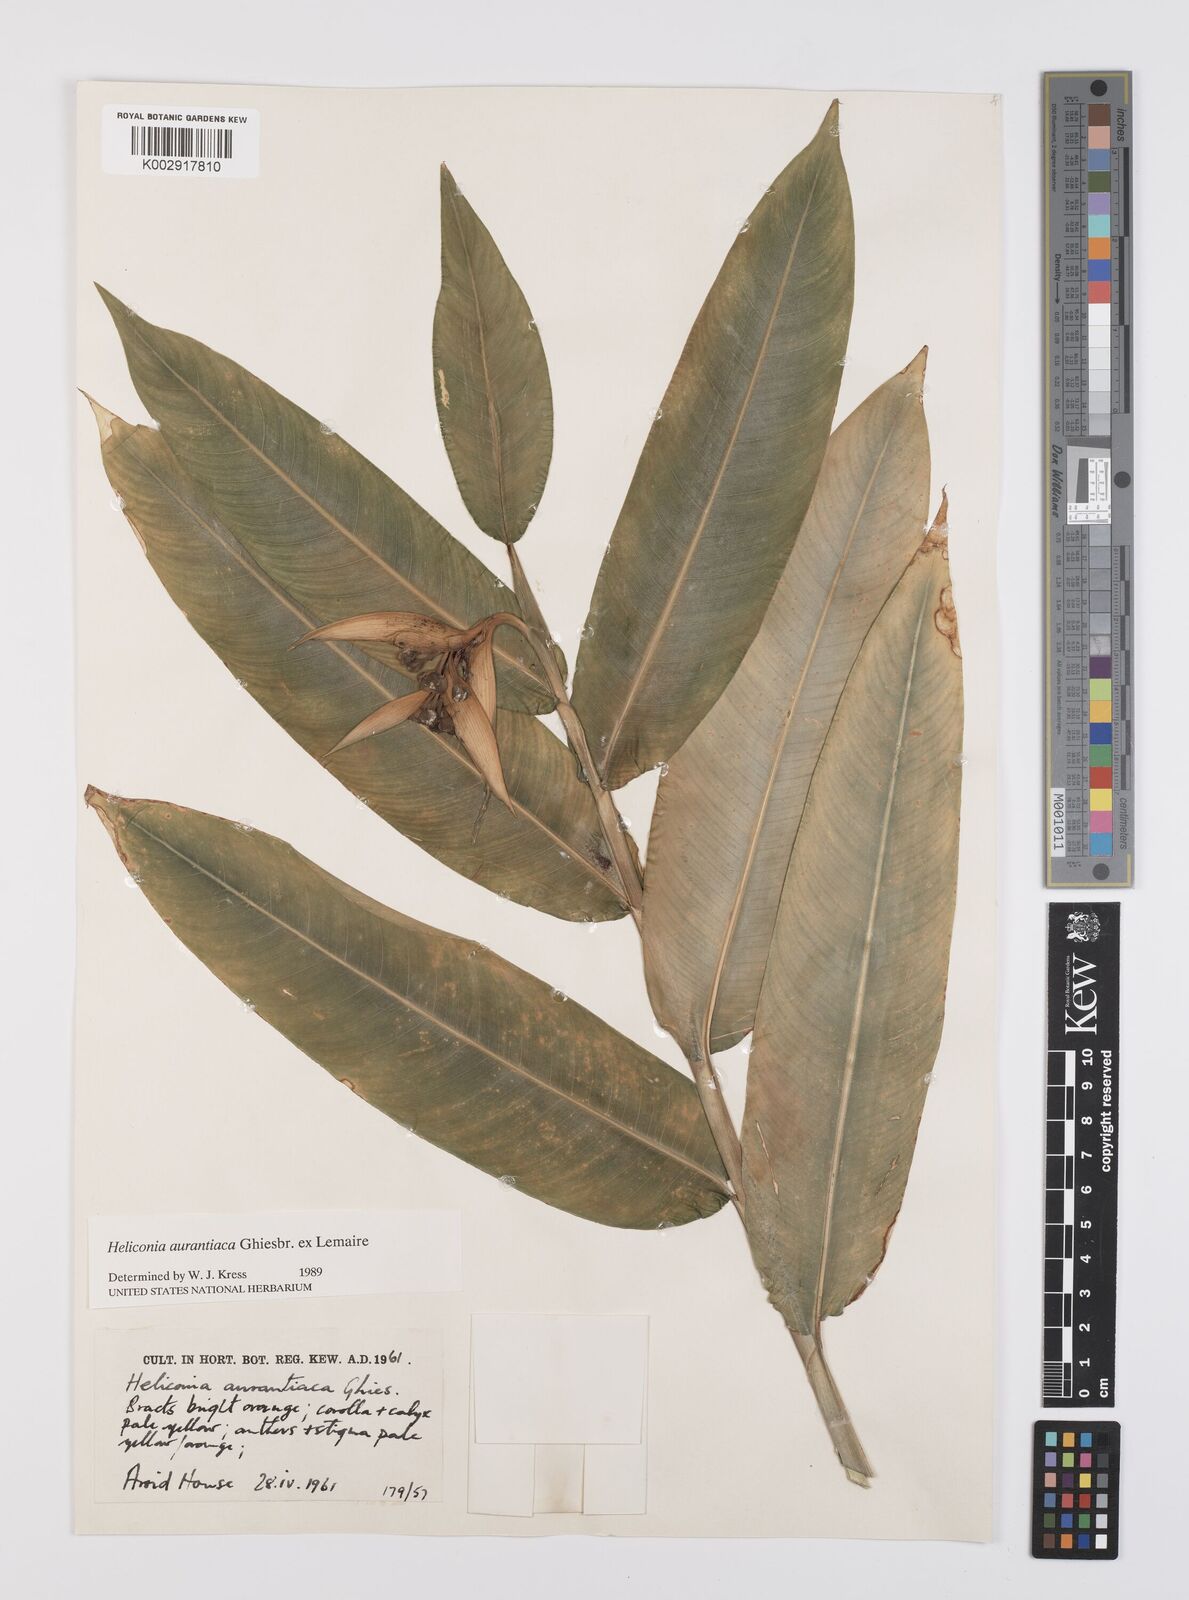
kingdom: Plantae
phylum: Tracheophyta
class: Liliopsida
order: Zingiberales
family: Heliconiaceae
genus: Heliconia
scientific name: Heliconia aurantiaca
